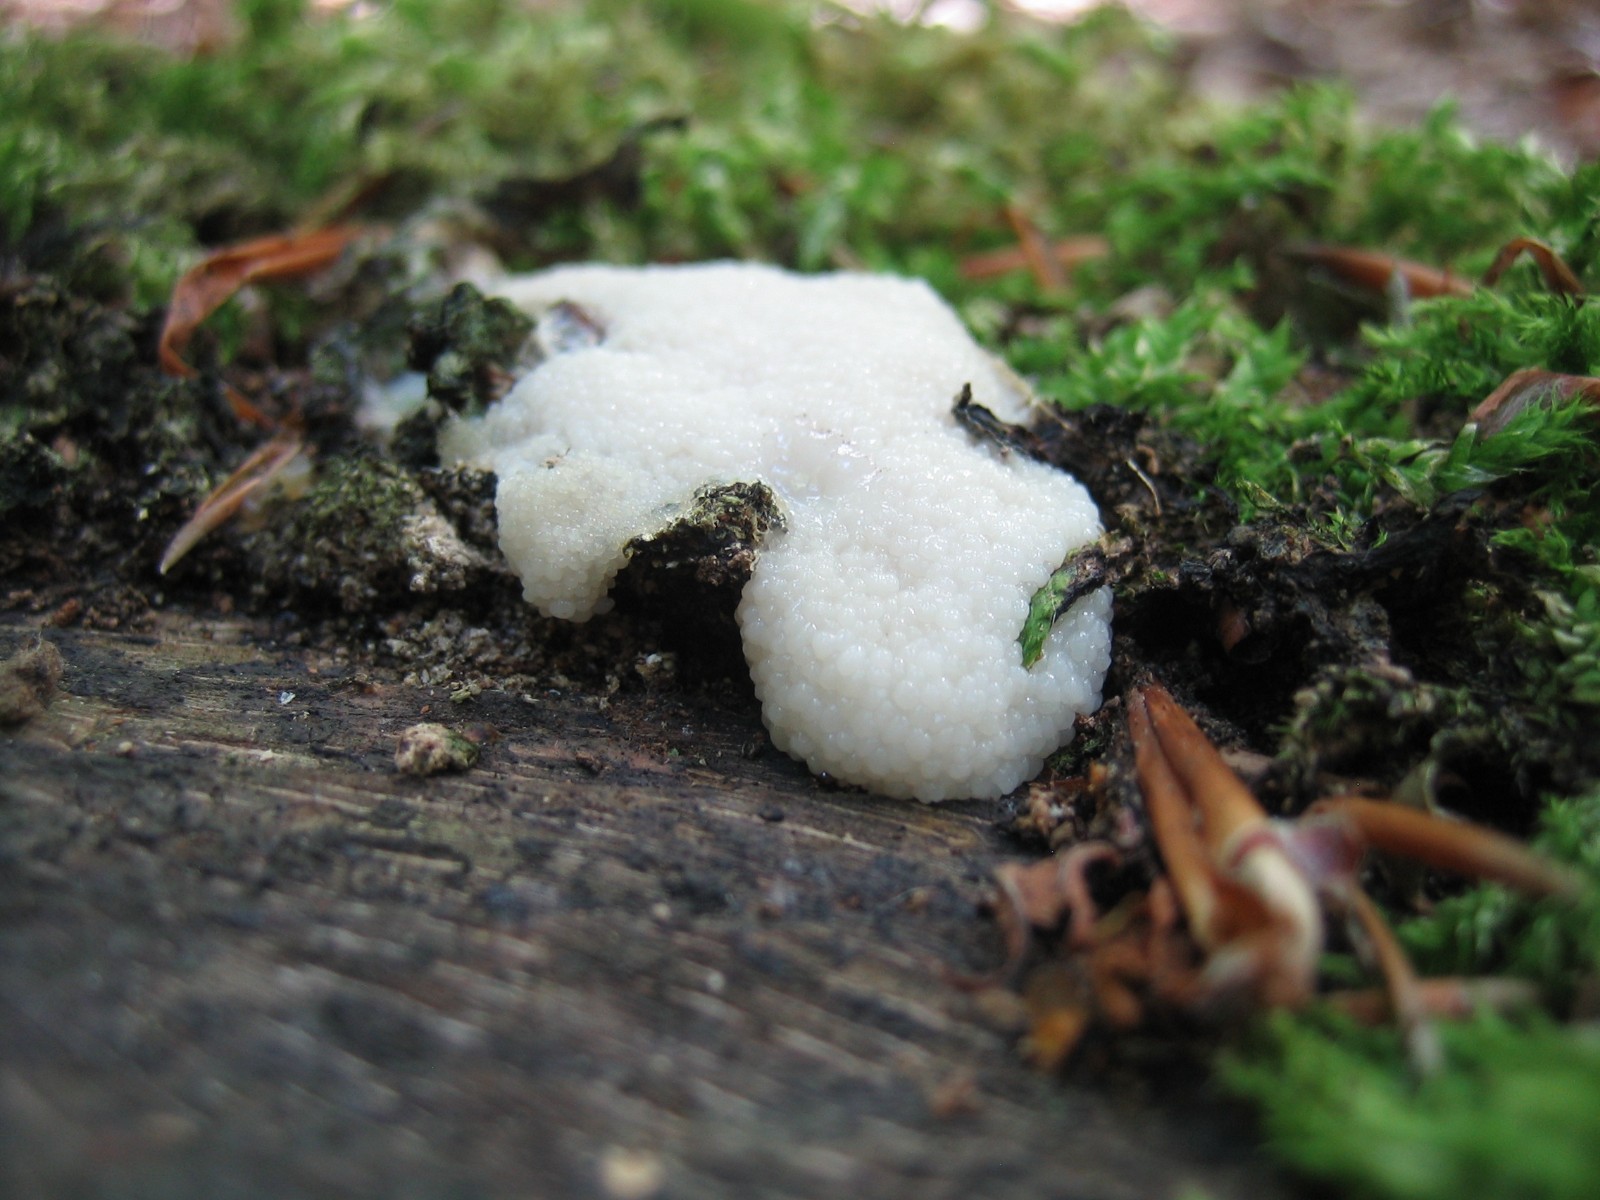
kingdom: Protozoa
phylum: Mycetozoa
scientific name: Mycetozoa
